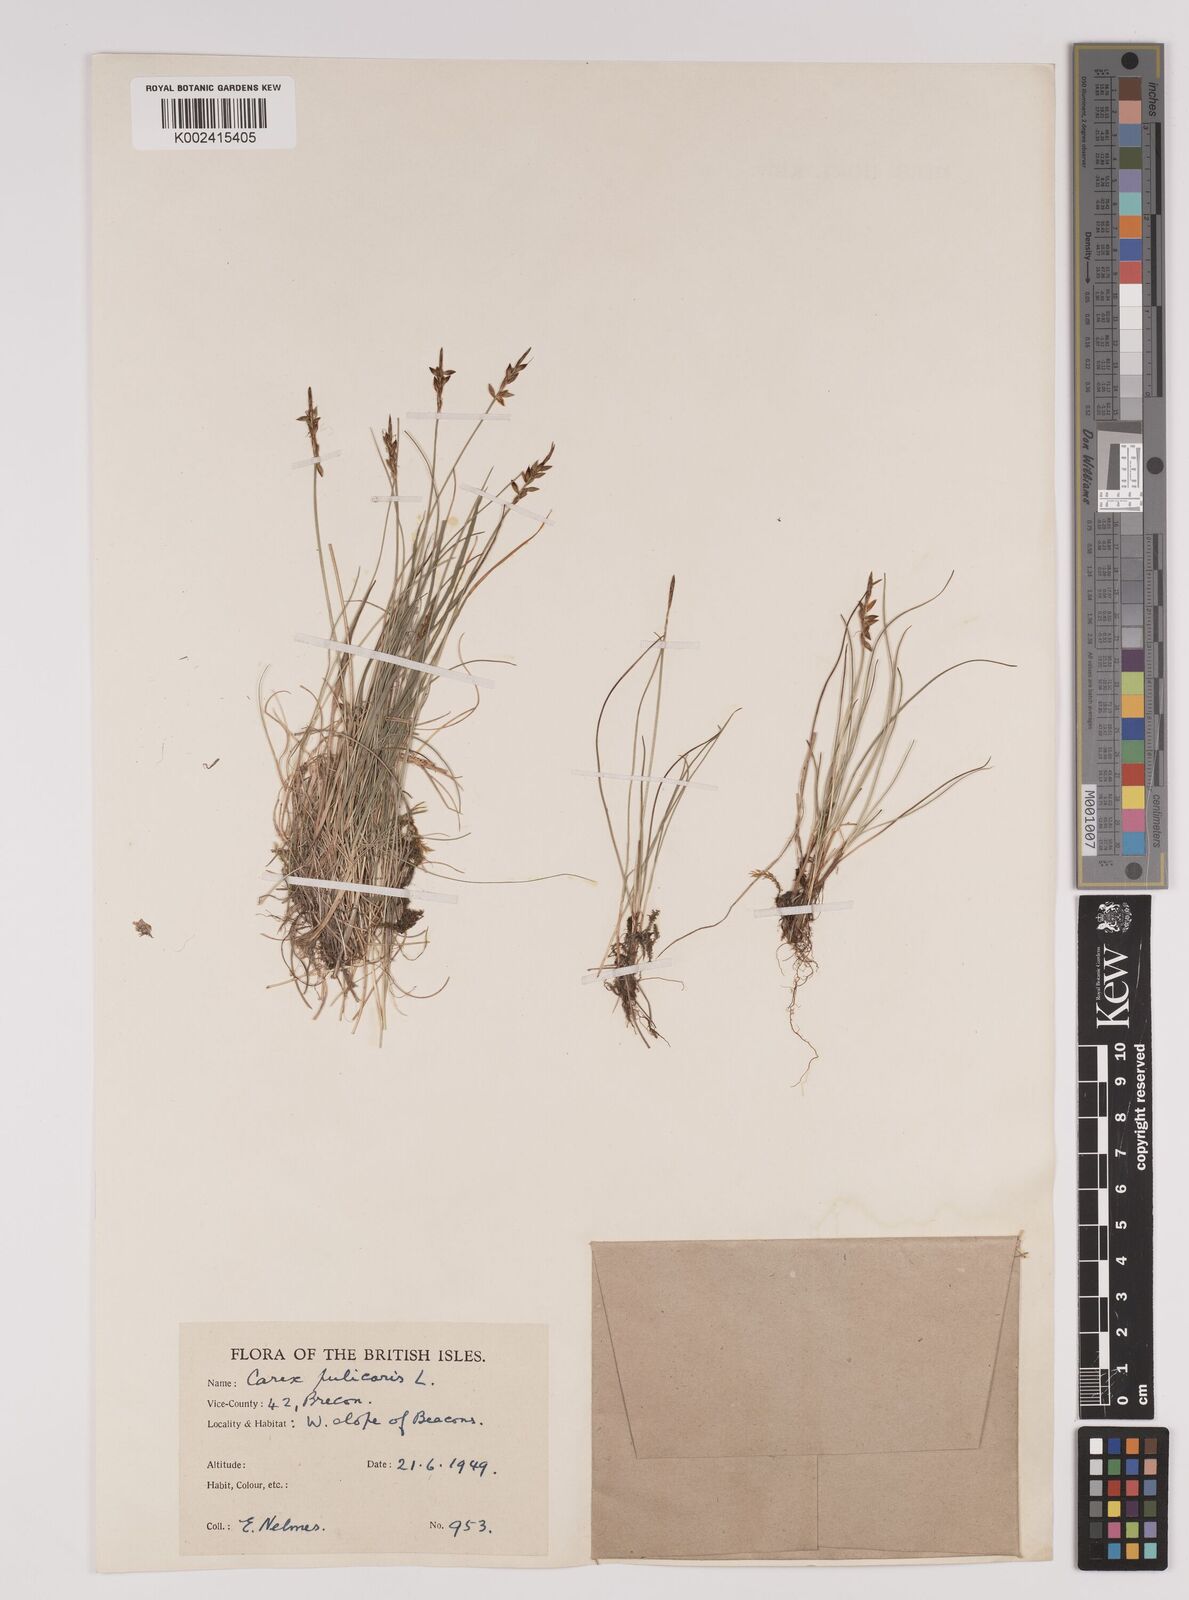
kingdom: Plantae
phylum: Tracheophyta
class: Liliopsida
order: Poales
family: Cyperaceae
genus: Carex
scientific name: Carex pulicaris
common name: Flea sedge
